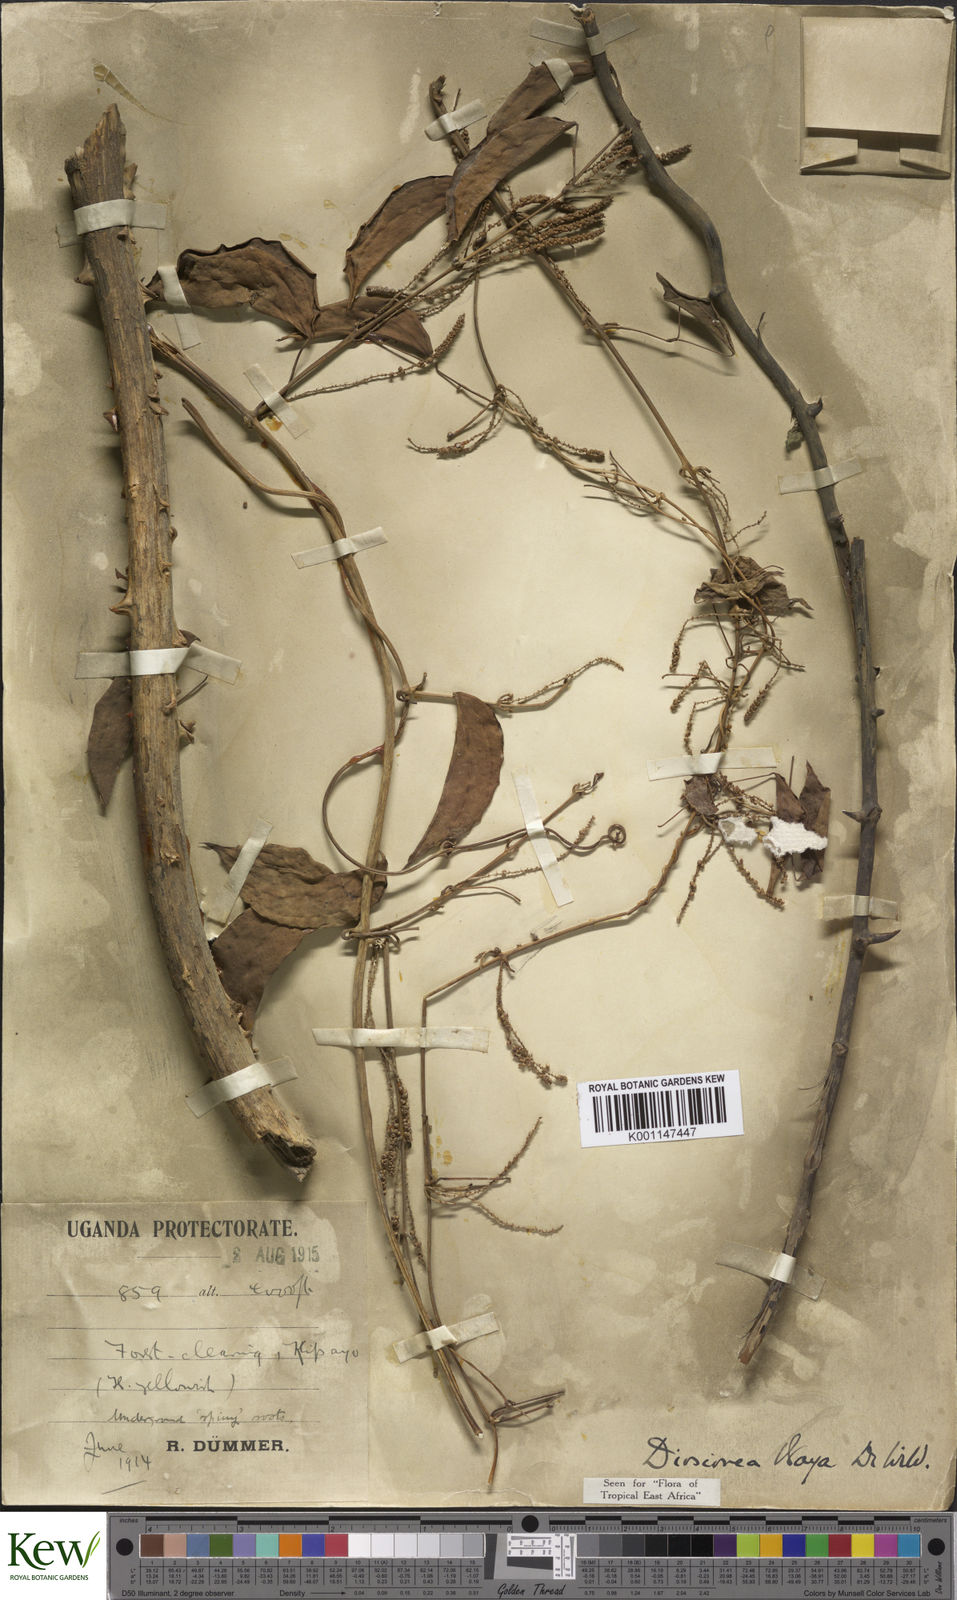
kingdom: Plantae
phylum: Tracheophyta
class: Liliopsida
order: Dioscoreales
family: Dioscoreaceae
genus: Dioscorea
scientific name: Dioscorea baya
